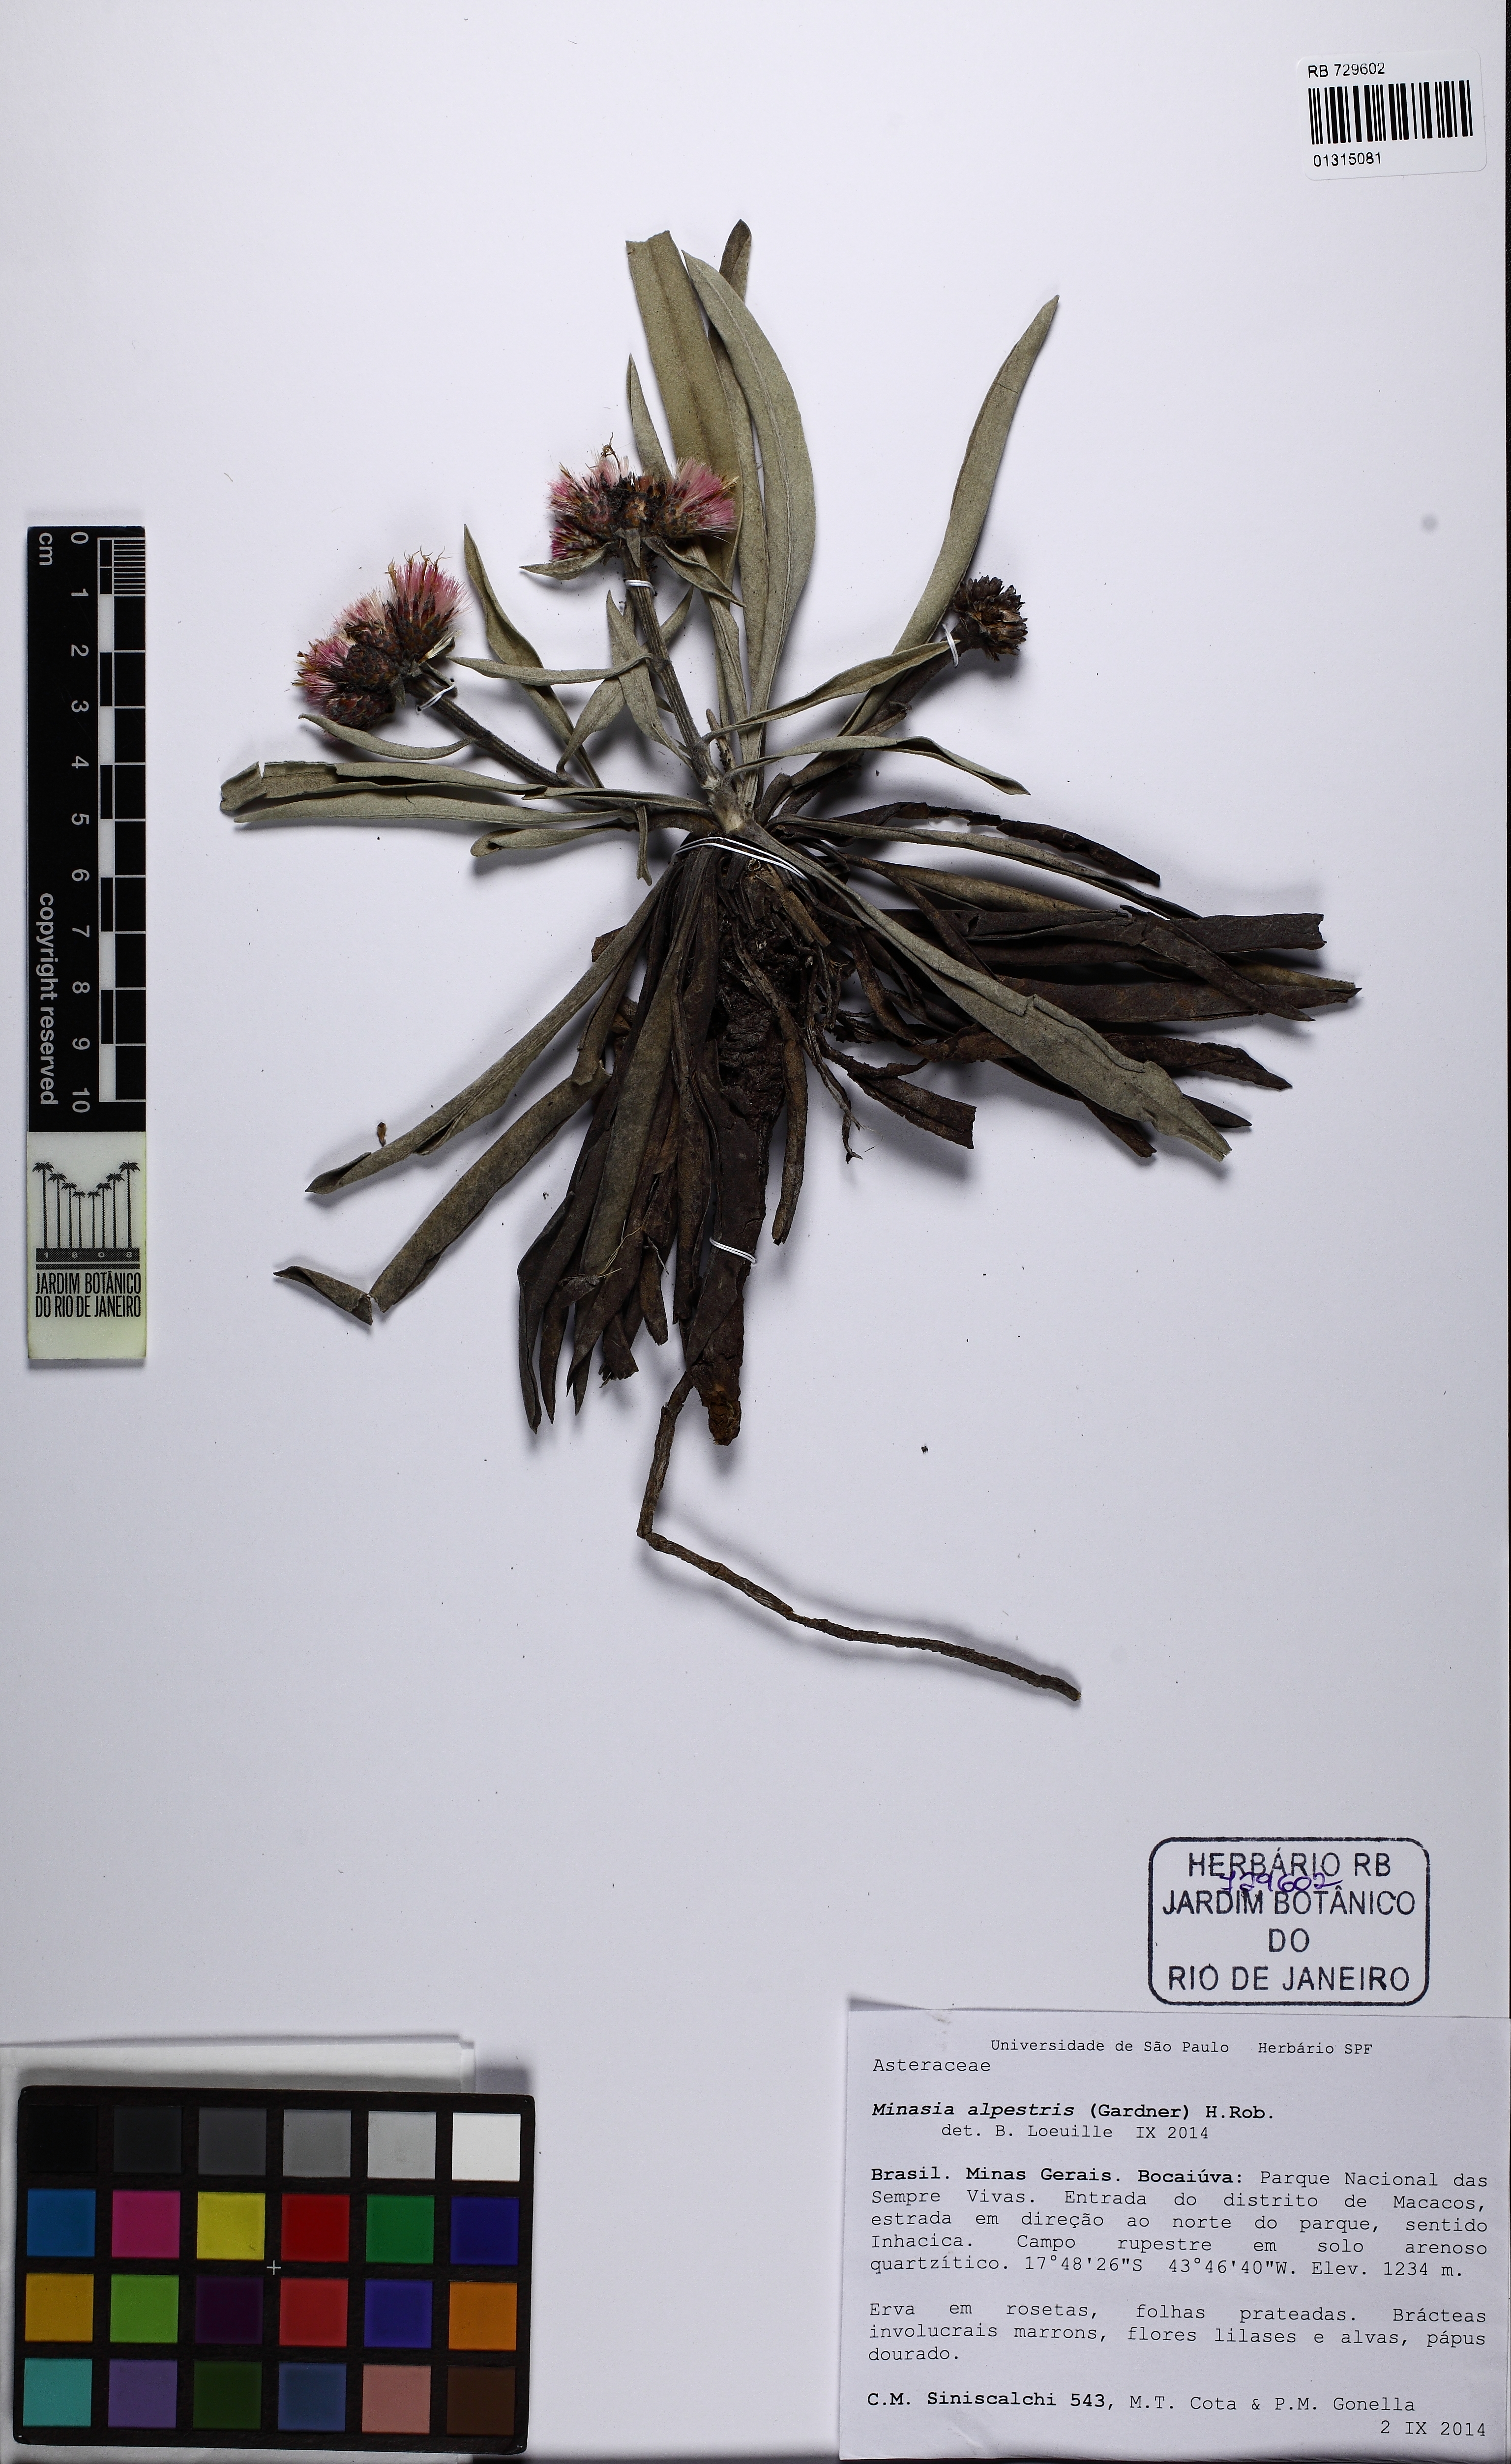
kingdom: Plantae
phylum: Tracheophyta
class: Magnoliopsida
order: Asterales
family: Asteraceae
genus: Minasia
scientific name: Minasia alpestris
